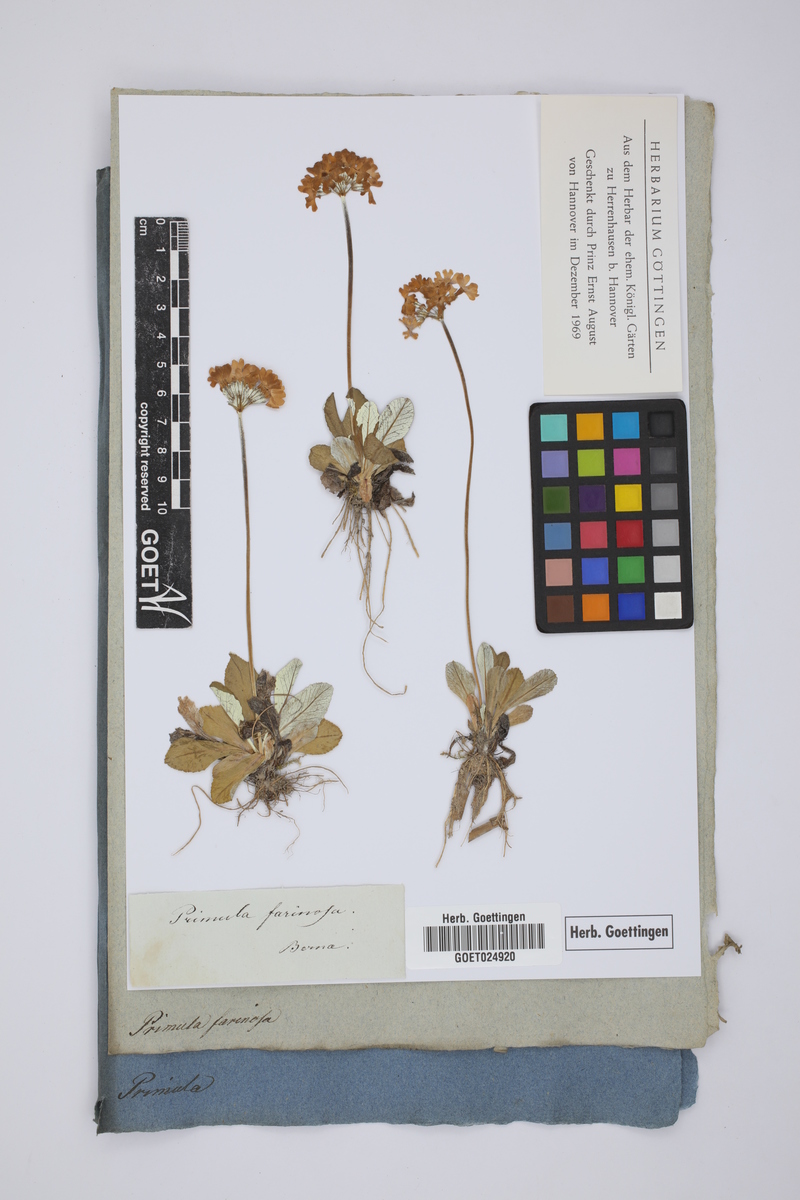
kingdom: Plantae
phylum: Tracheophyta
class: Magnoliopsida
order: Ericales
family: Primulaceae
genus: Primula
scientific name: Primula farinosa
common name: Bird's-eye primrose
